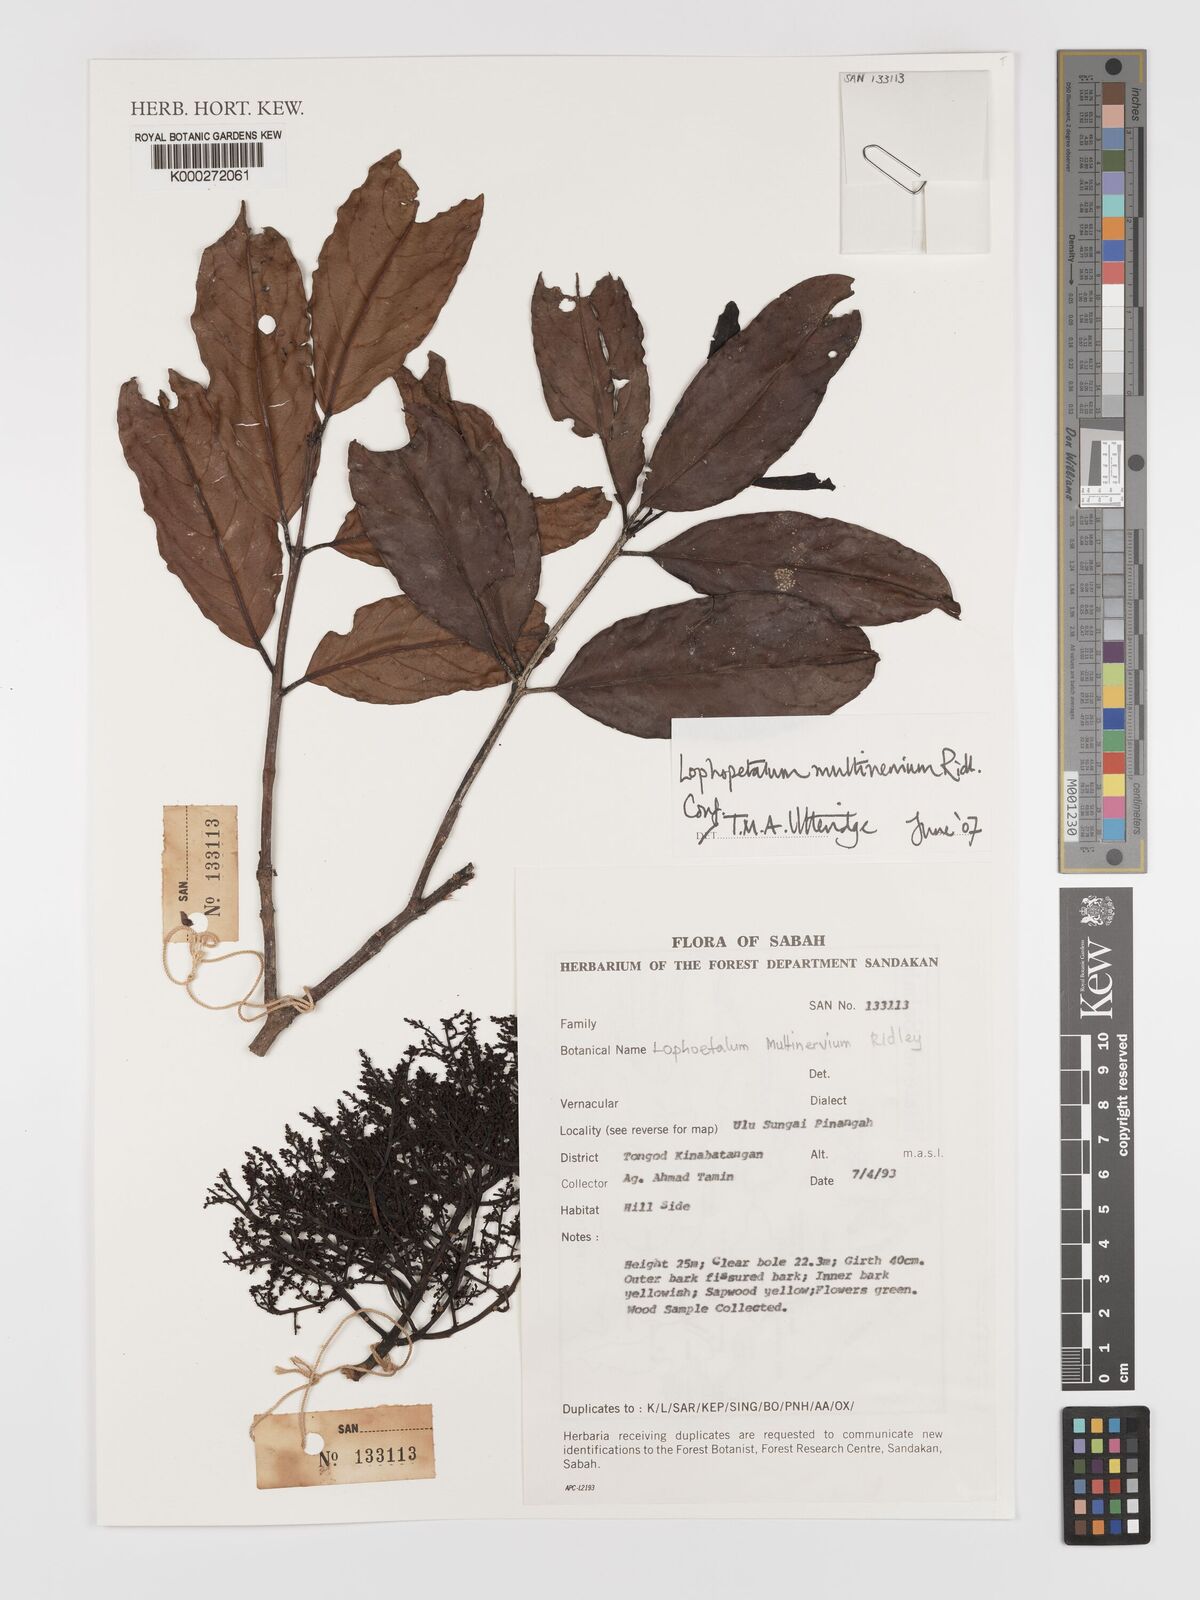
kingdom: Plantae
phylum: Tracheophyta
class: Magnoliopsida
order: Celastrales
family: Celastraceae
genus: Lophopetalum
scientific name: Lophopetalum multinervium
